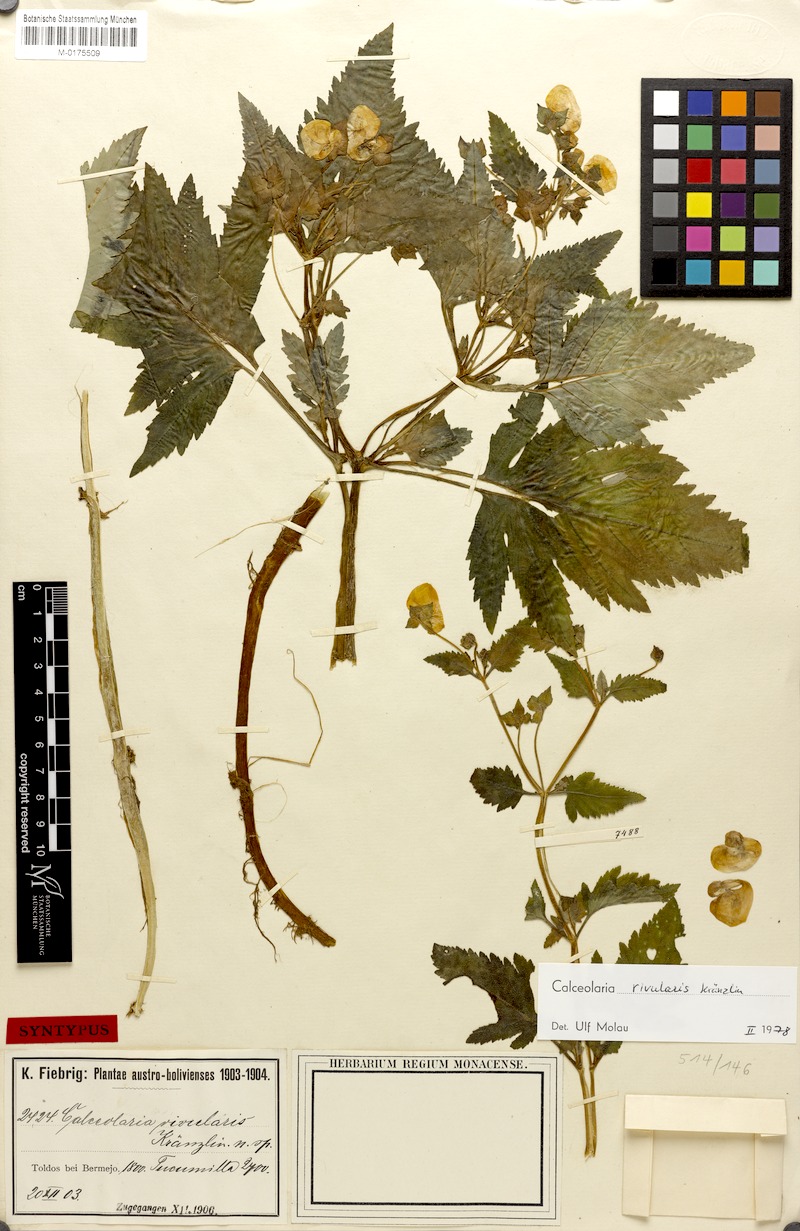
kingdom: Plantae
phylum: Tracheophyta
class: Magnoliopsida
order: Lamiales
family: Calceolariaceae
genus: Calceolaria
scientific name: Calceolaria rivularis
